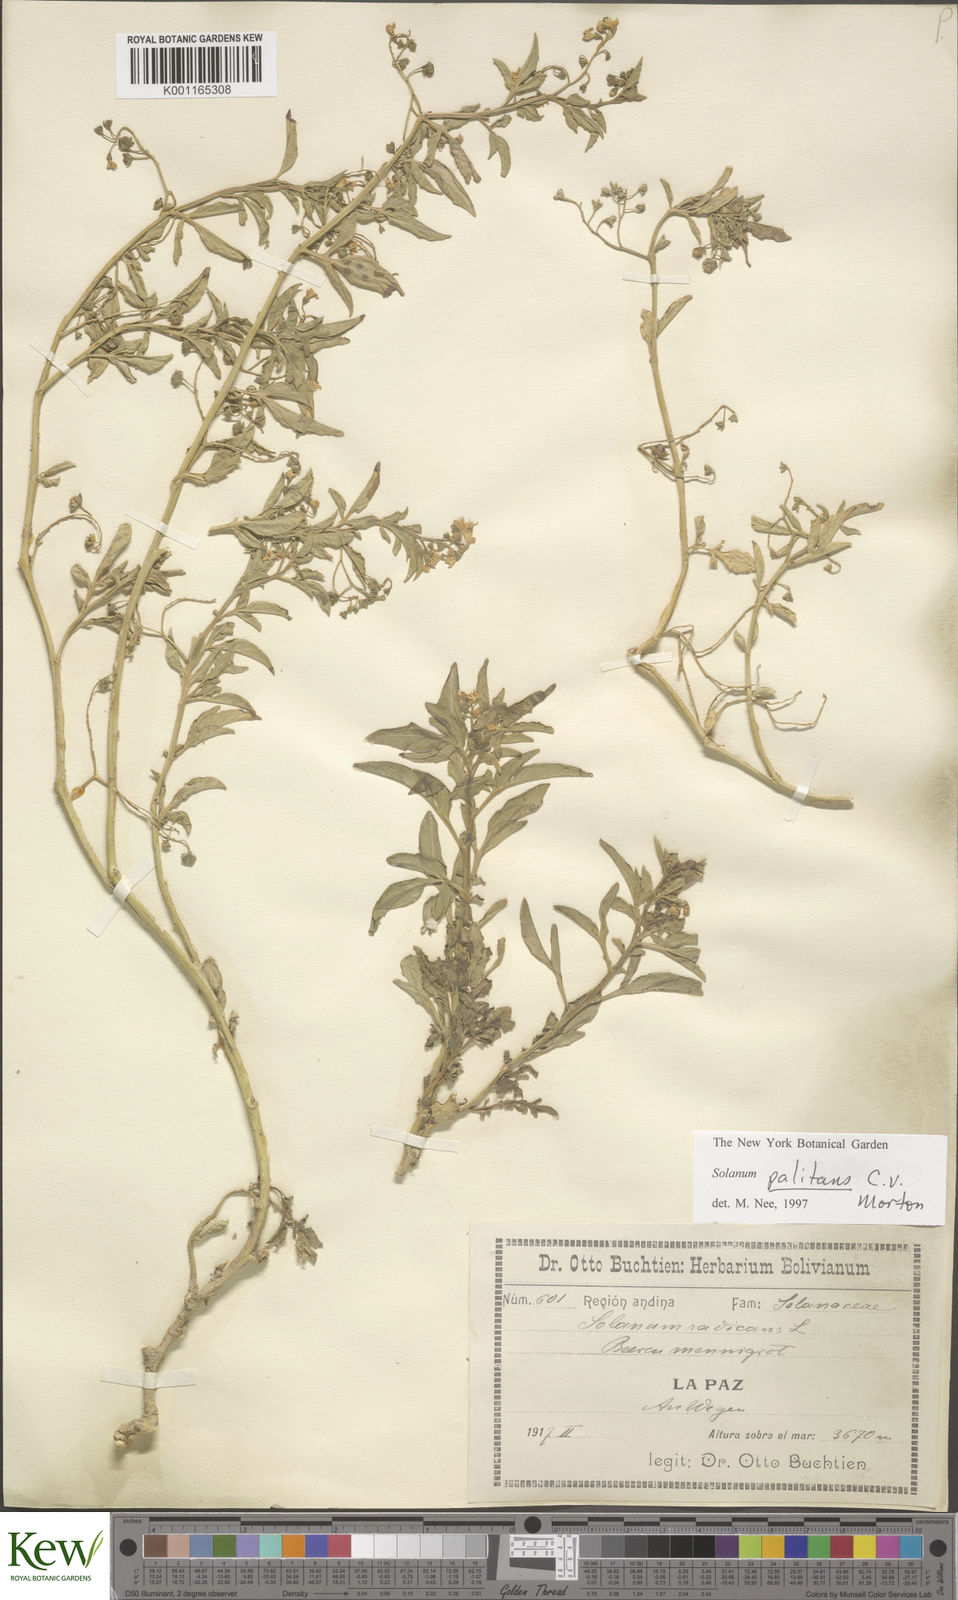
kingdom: Plantae
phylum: Tracheophyta
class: Magnoliopsida
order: Solanales
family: Solanaceae
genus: Solanum
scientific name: Solanum palitans
